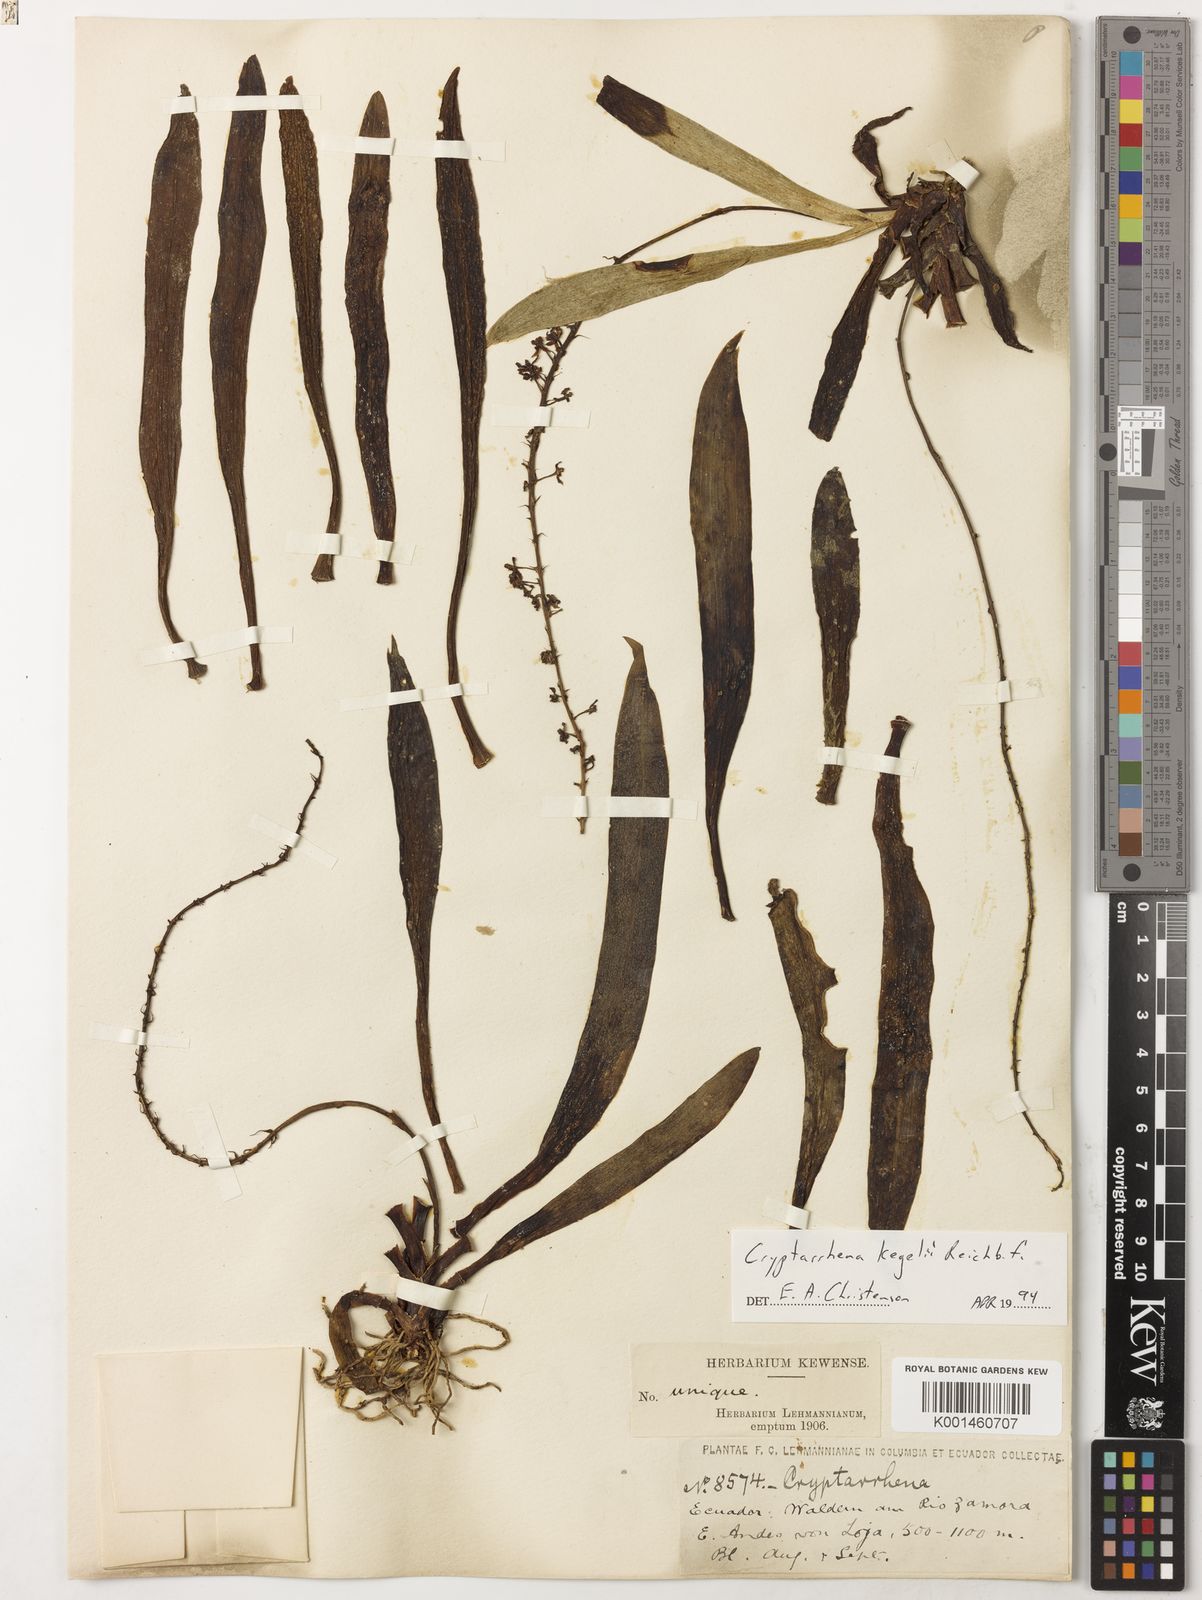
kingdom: Plantae
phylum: Tracheophyta
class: Liliopsida
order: Asparagales
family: Orchidaceae
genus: Cryptarrhena
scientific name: Cryptarrhena kegelii
